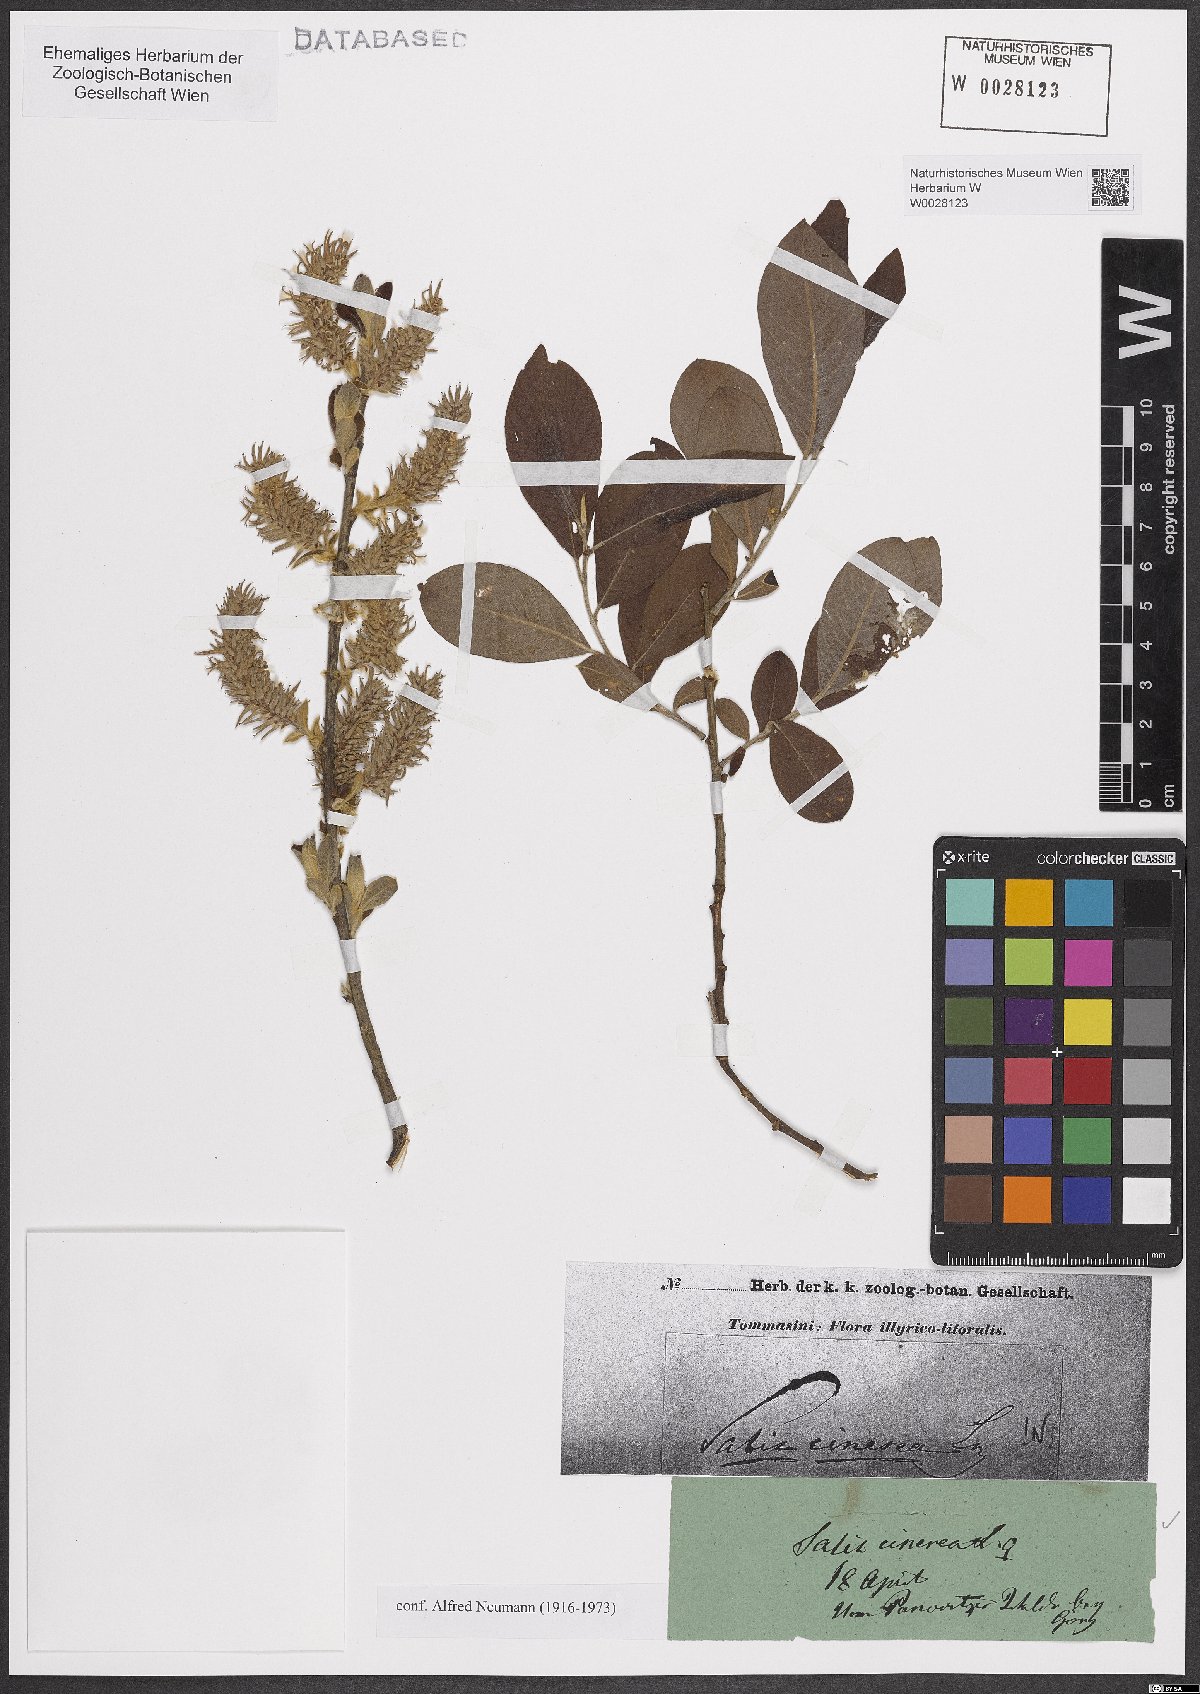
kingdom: Plantae
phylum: Tracheophyta
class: Magnoliopsida
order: Malpighiales
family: Salicaceae
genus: Salix
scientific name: Salix cinerea
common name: Common sallow
